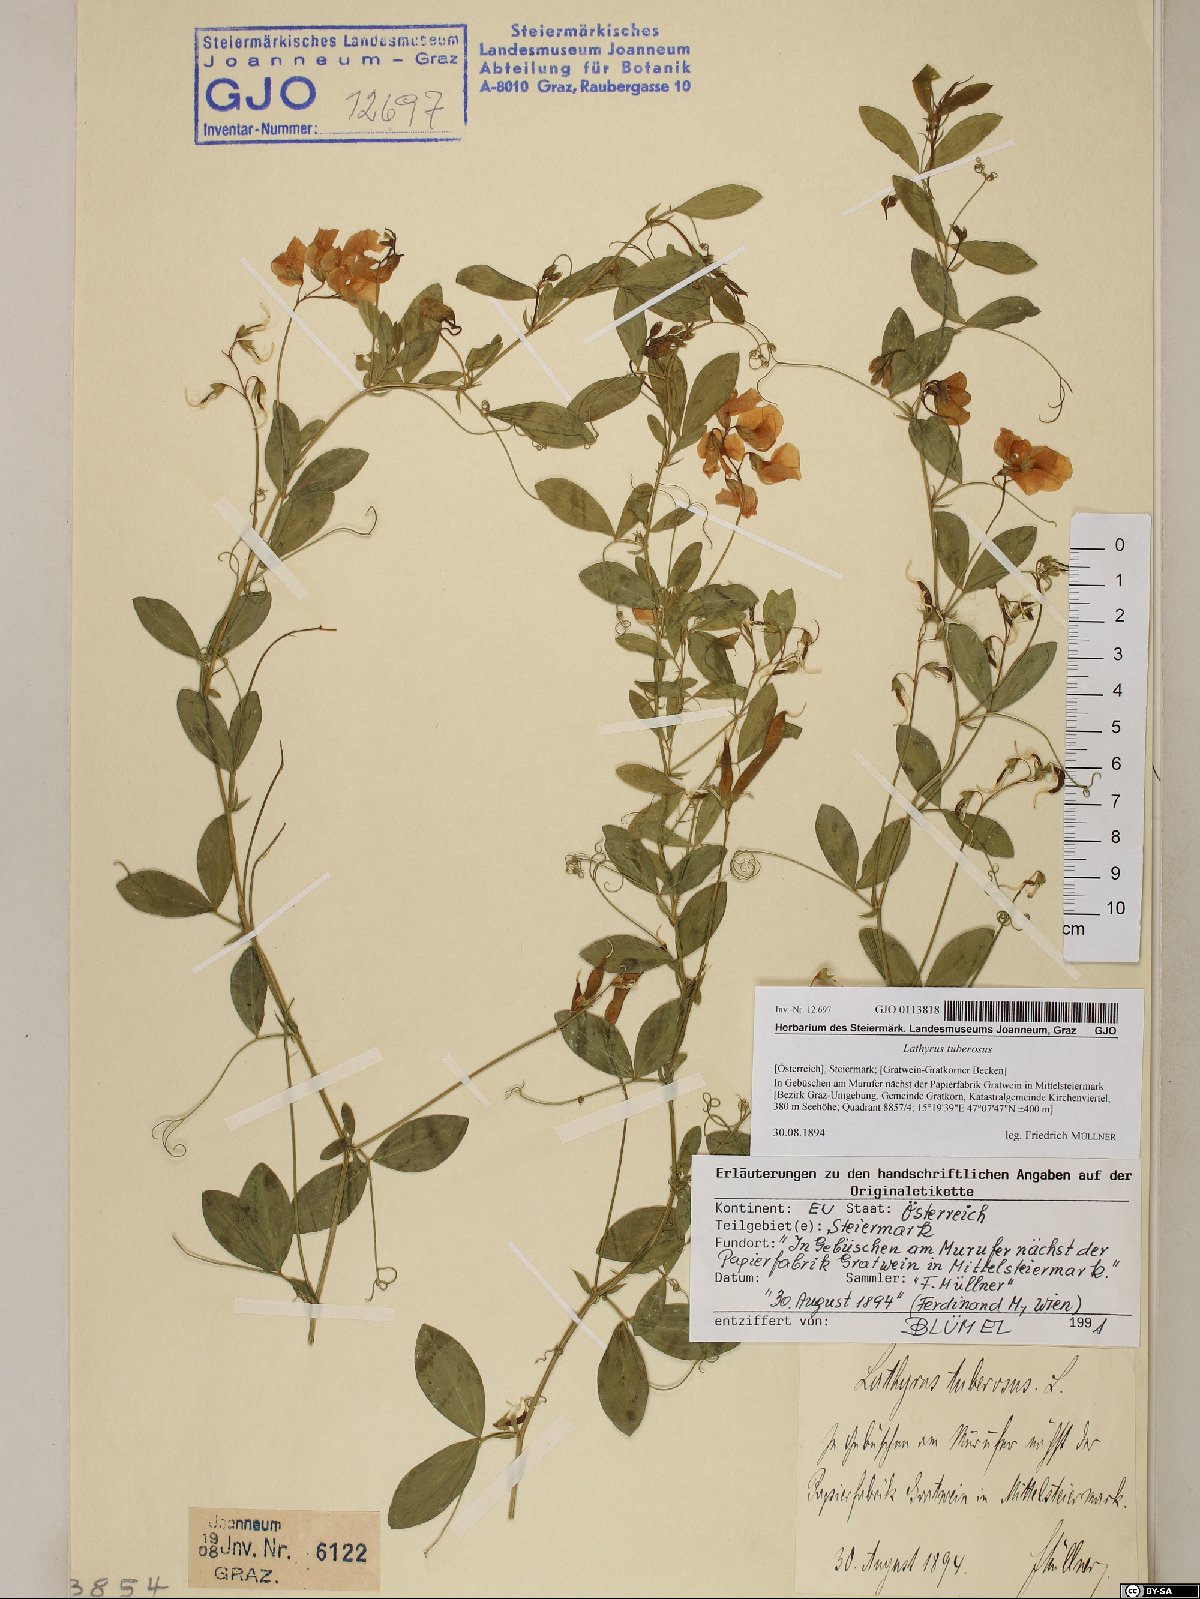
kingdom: Plantae
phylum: Tracheophyta
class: Magnoliopsida
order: Fabales
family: Fabaceae
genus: Lathyrus
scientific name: Lathyrus tuberosus
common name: Tuberous pea
